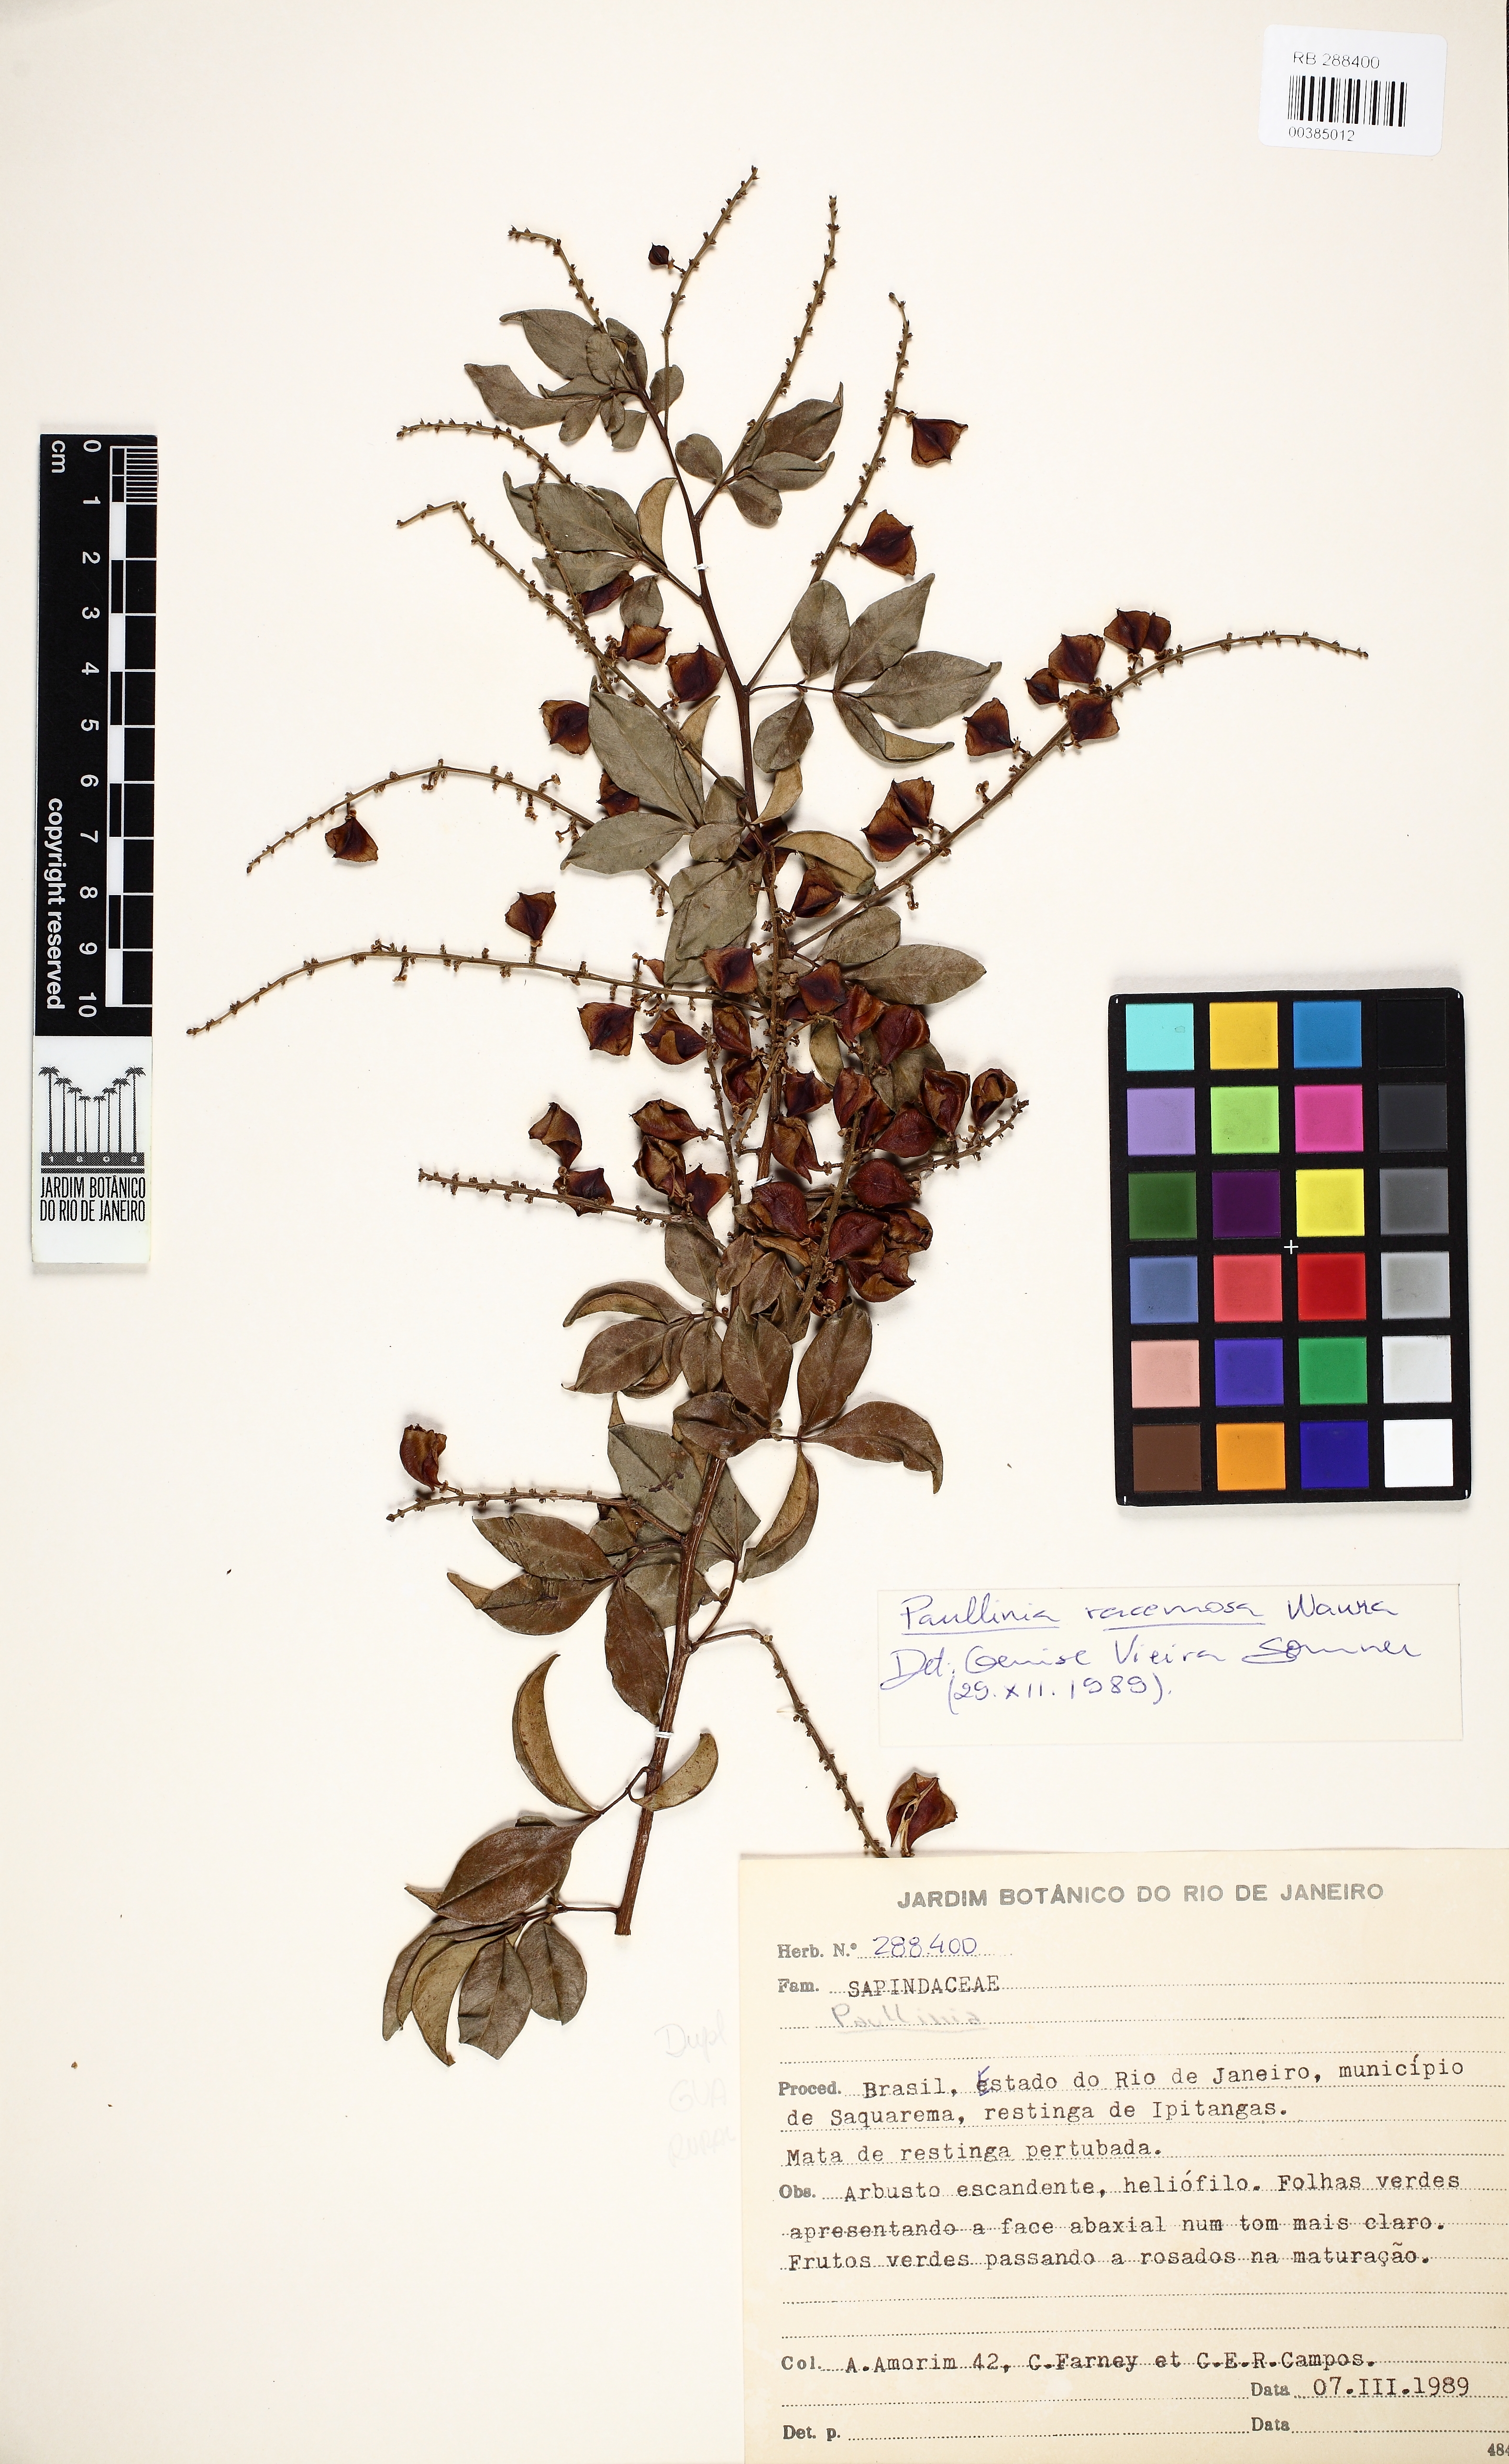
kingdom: Plantae
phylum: Tracheophyta
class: Magnoliopsida
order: Sapindales
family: Sapindaceae
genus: Paullinia
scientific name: Paullinia racemosa
